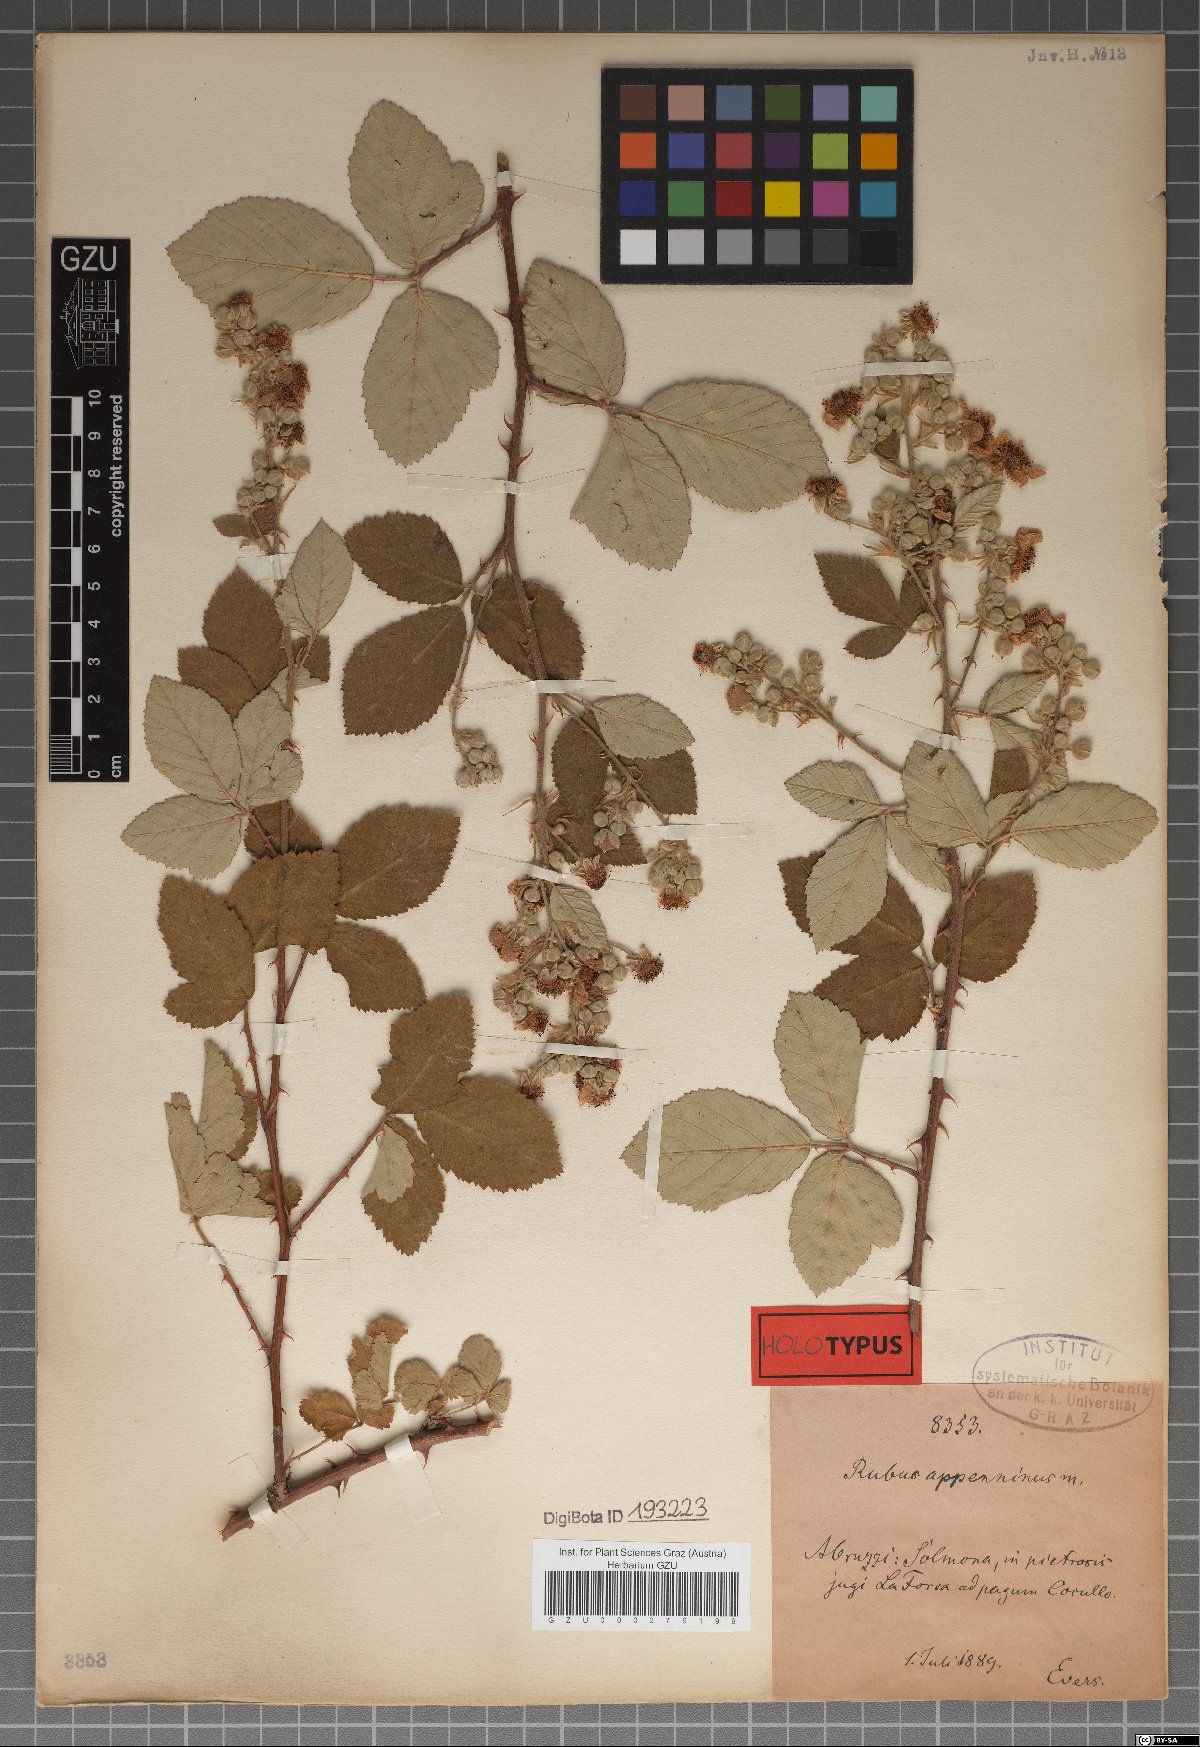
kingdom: Plantae
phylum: Tracheophyta
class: Magnoliopsida
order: Rosales
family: Rosaceae
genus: Rubus
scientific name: Rubus ulmifolius
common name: Elmleaf blackberry
